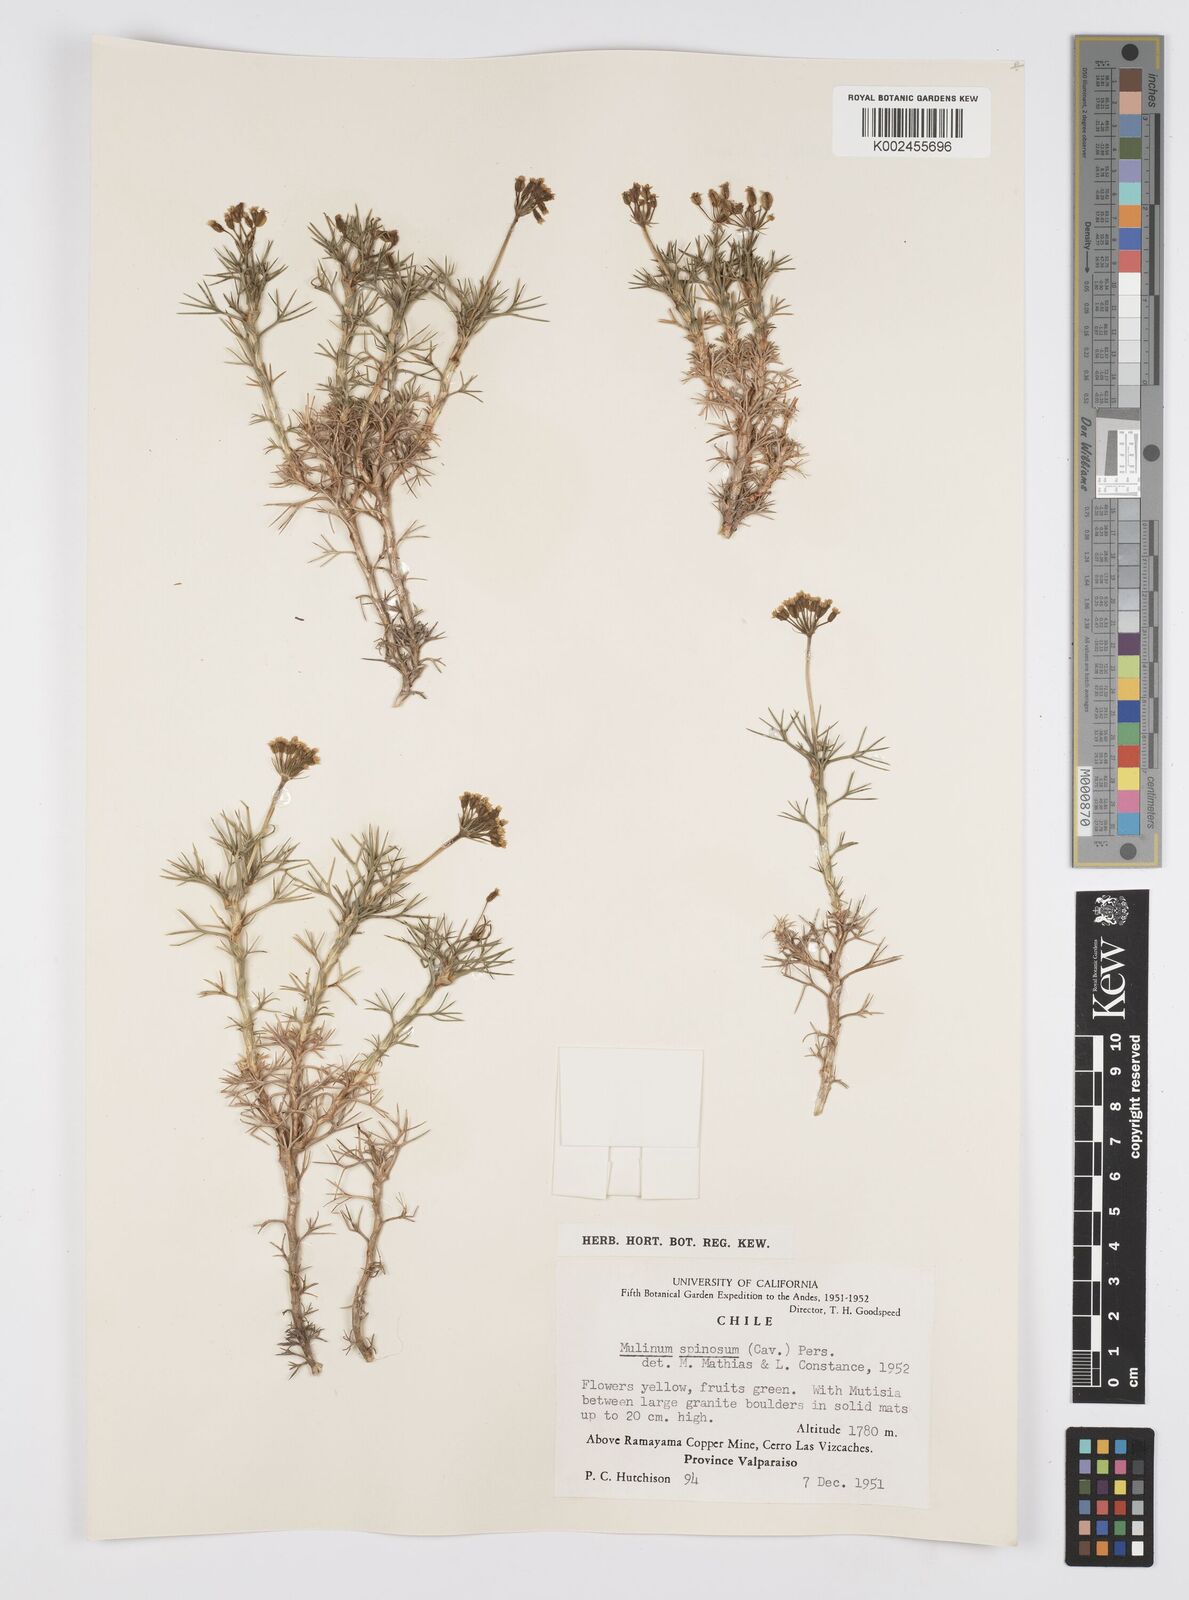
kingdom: Plantae
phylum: Tracheophyta
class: Magnoliopsida
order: Apiales
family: Apiaceae
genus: Azorella
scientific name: Azorella prolifera
